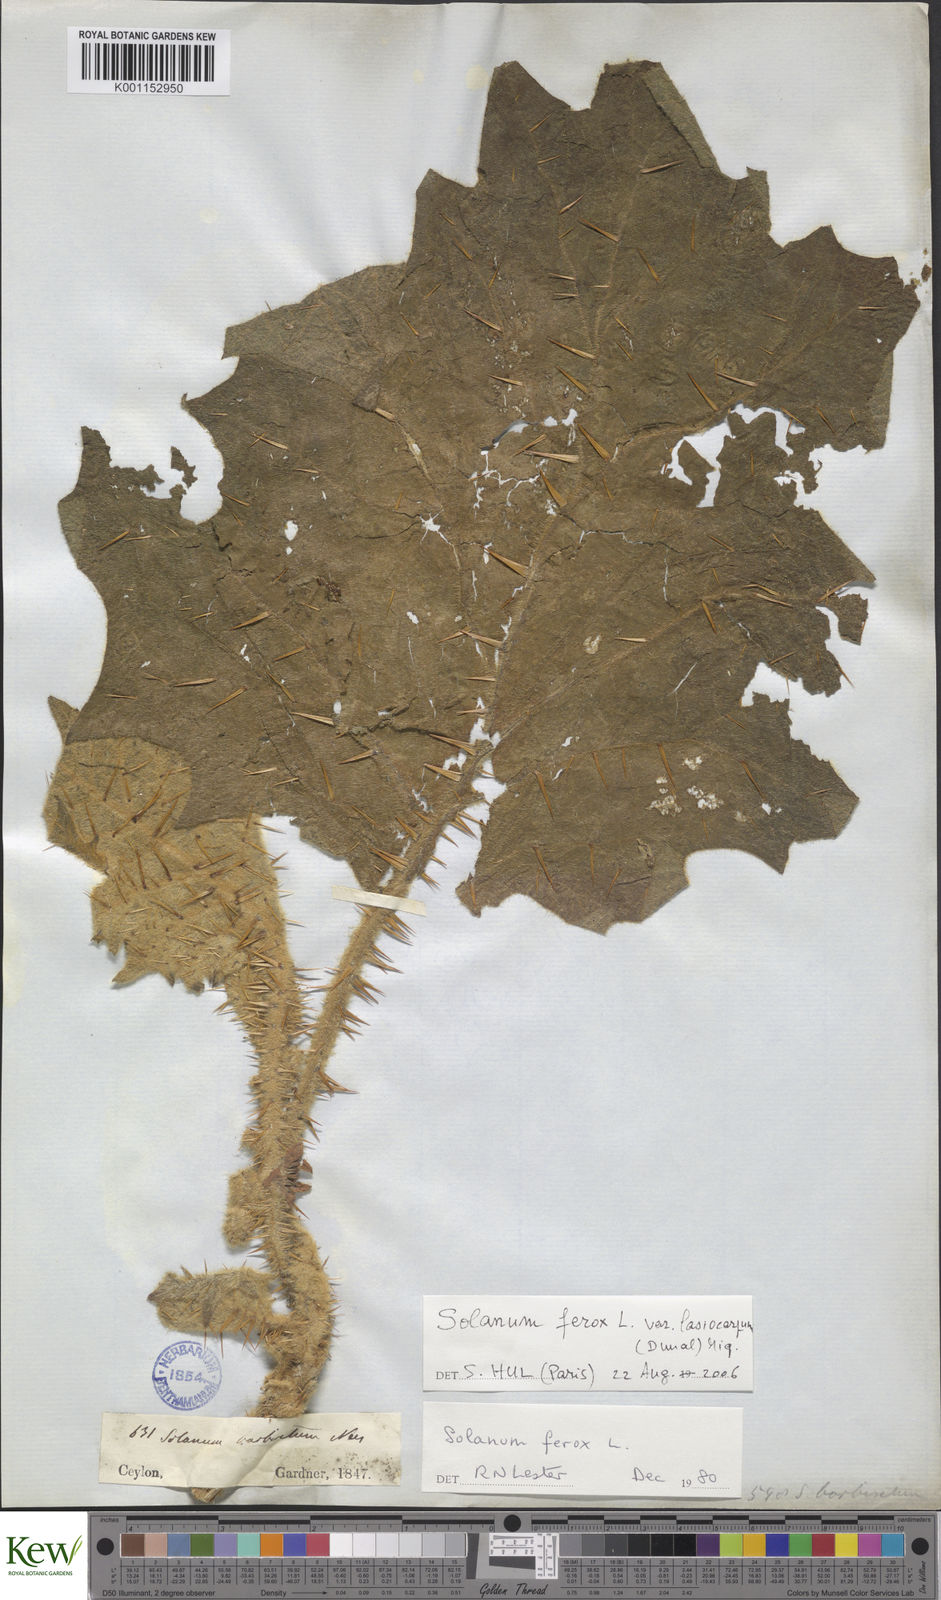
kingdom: Plantae
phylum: Tracheophyta
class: Magnoliopsida
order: Solanales
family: Solanaceae
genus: Solanum
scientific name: Solanum
